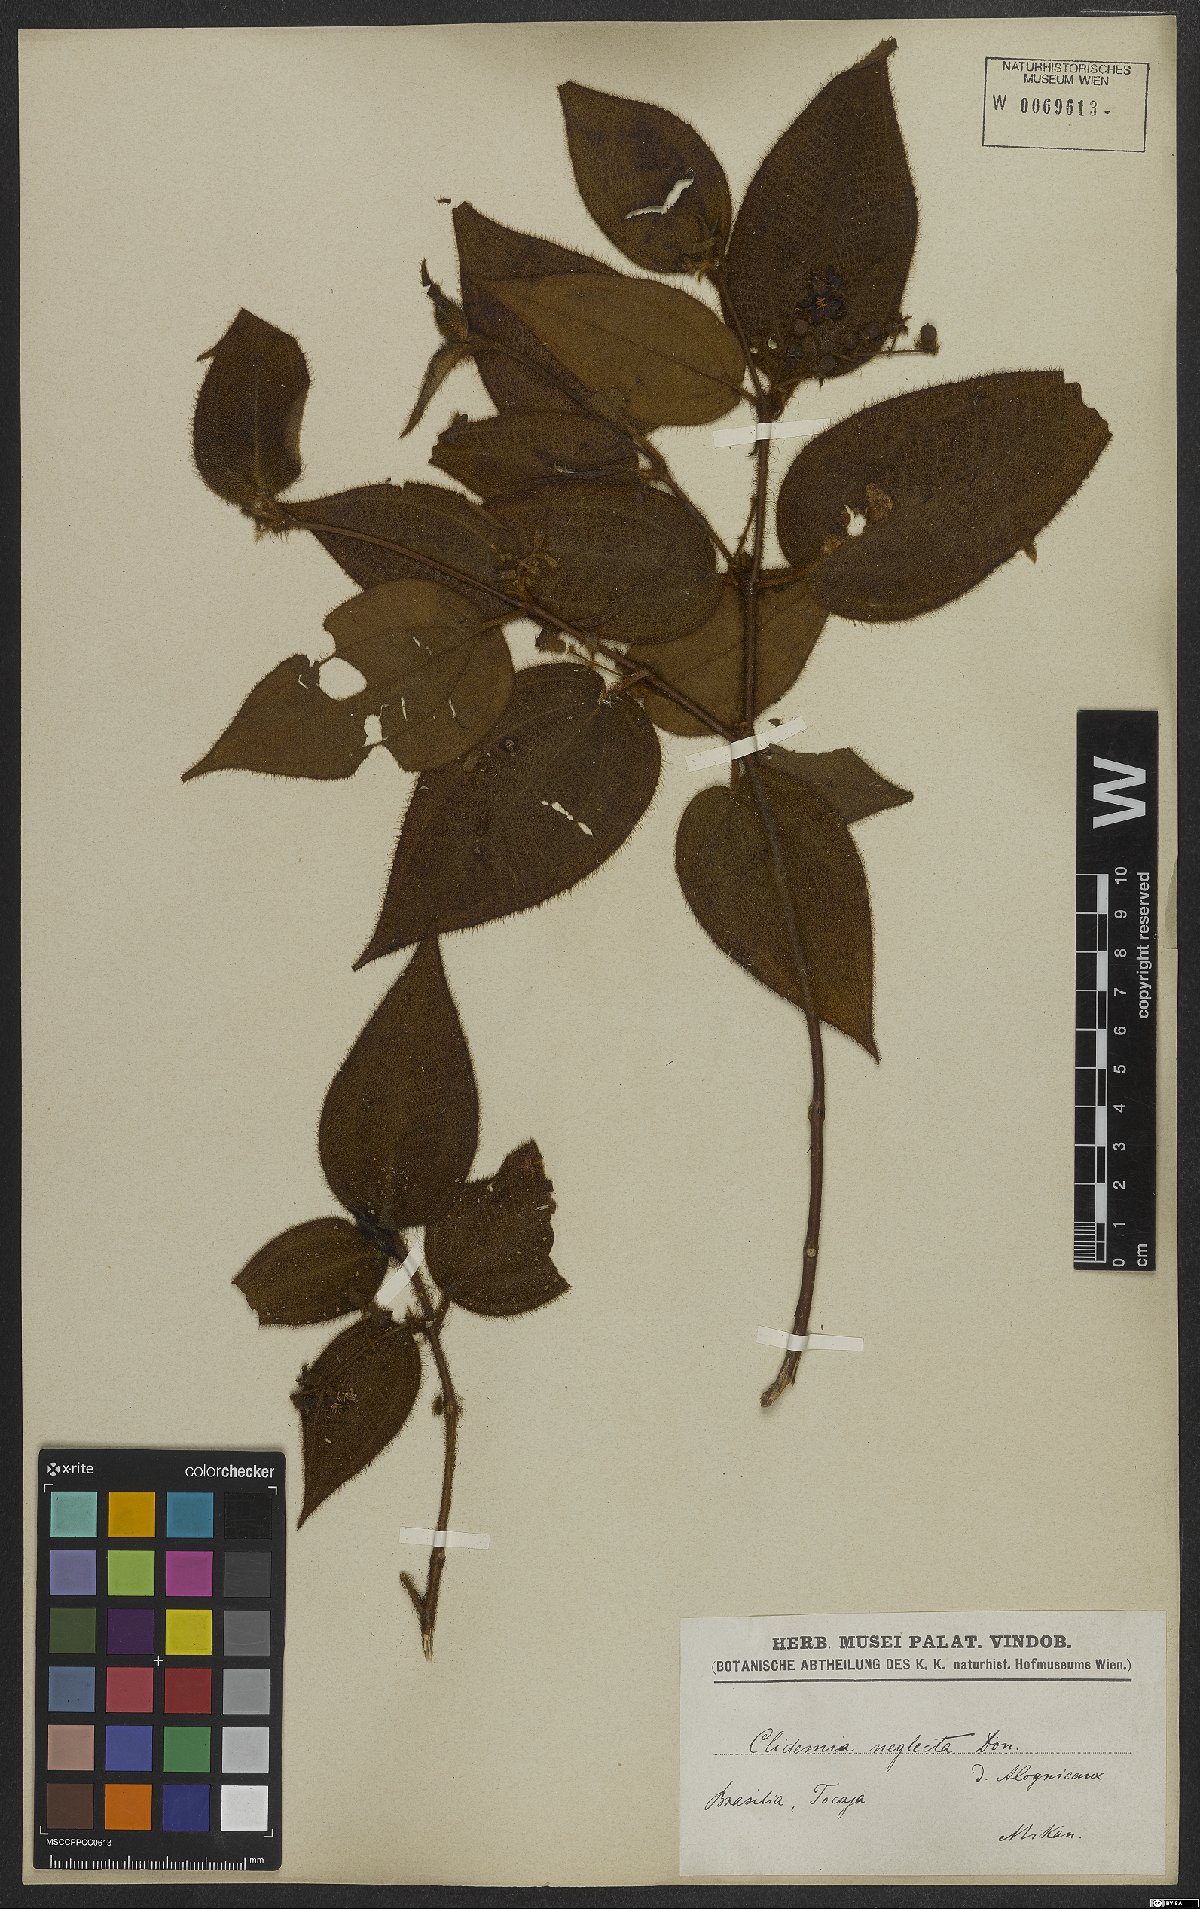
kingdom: Plantae
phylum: Tracheophyta
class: Magnoliopsida
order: Myrtales
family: Melastomataceae
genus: Miconia
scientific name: Miconia dependens
